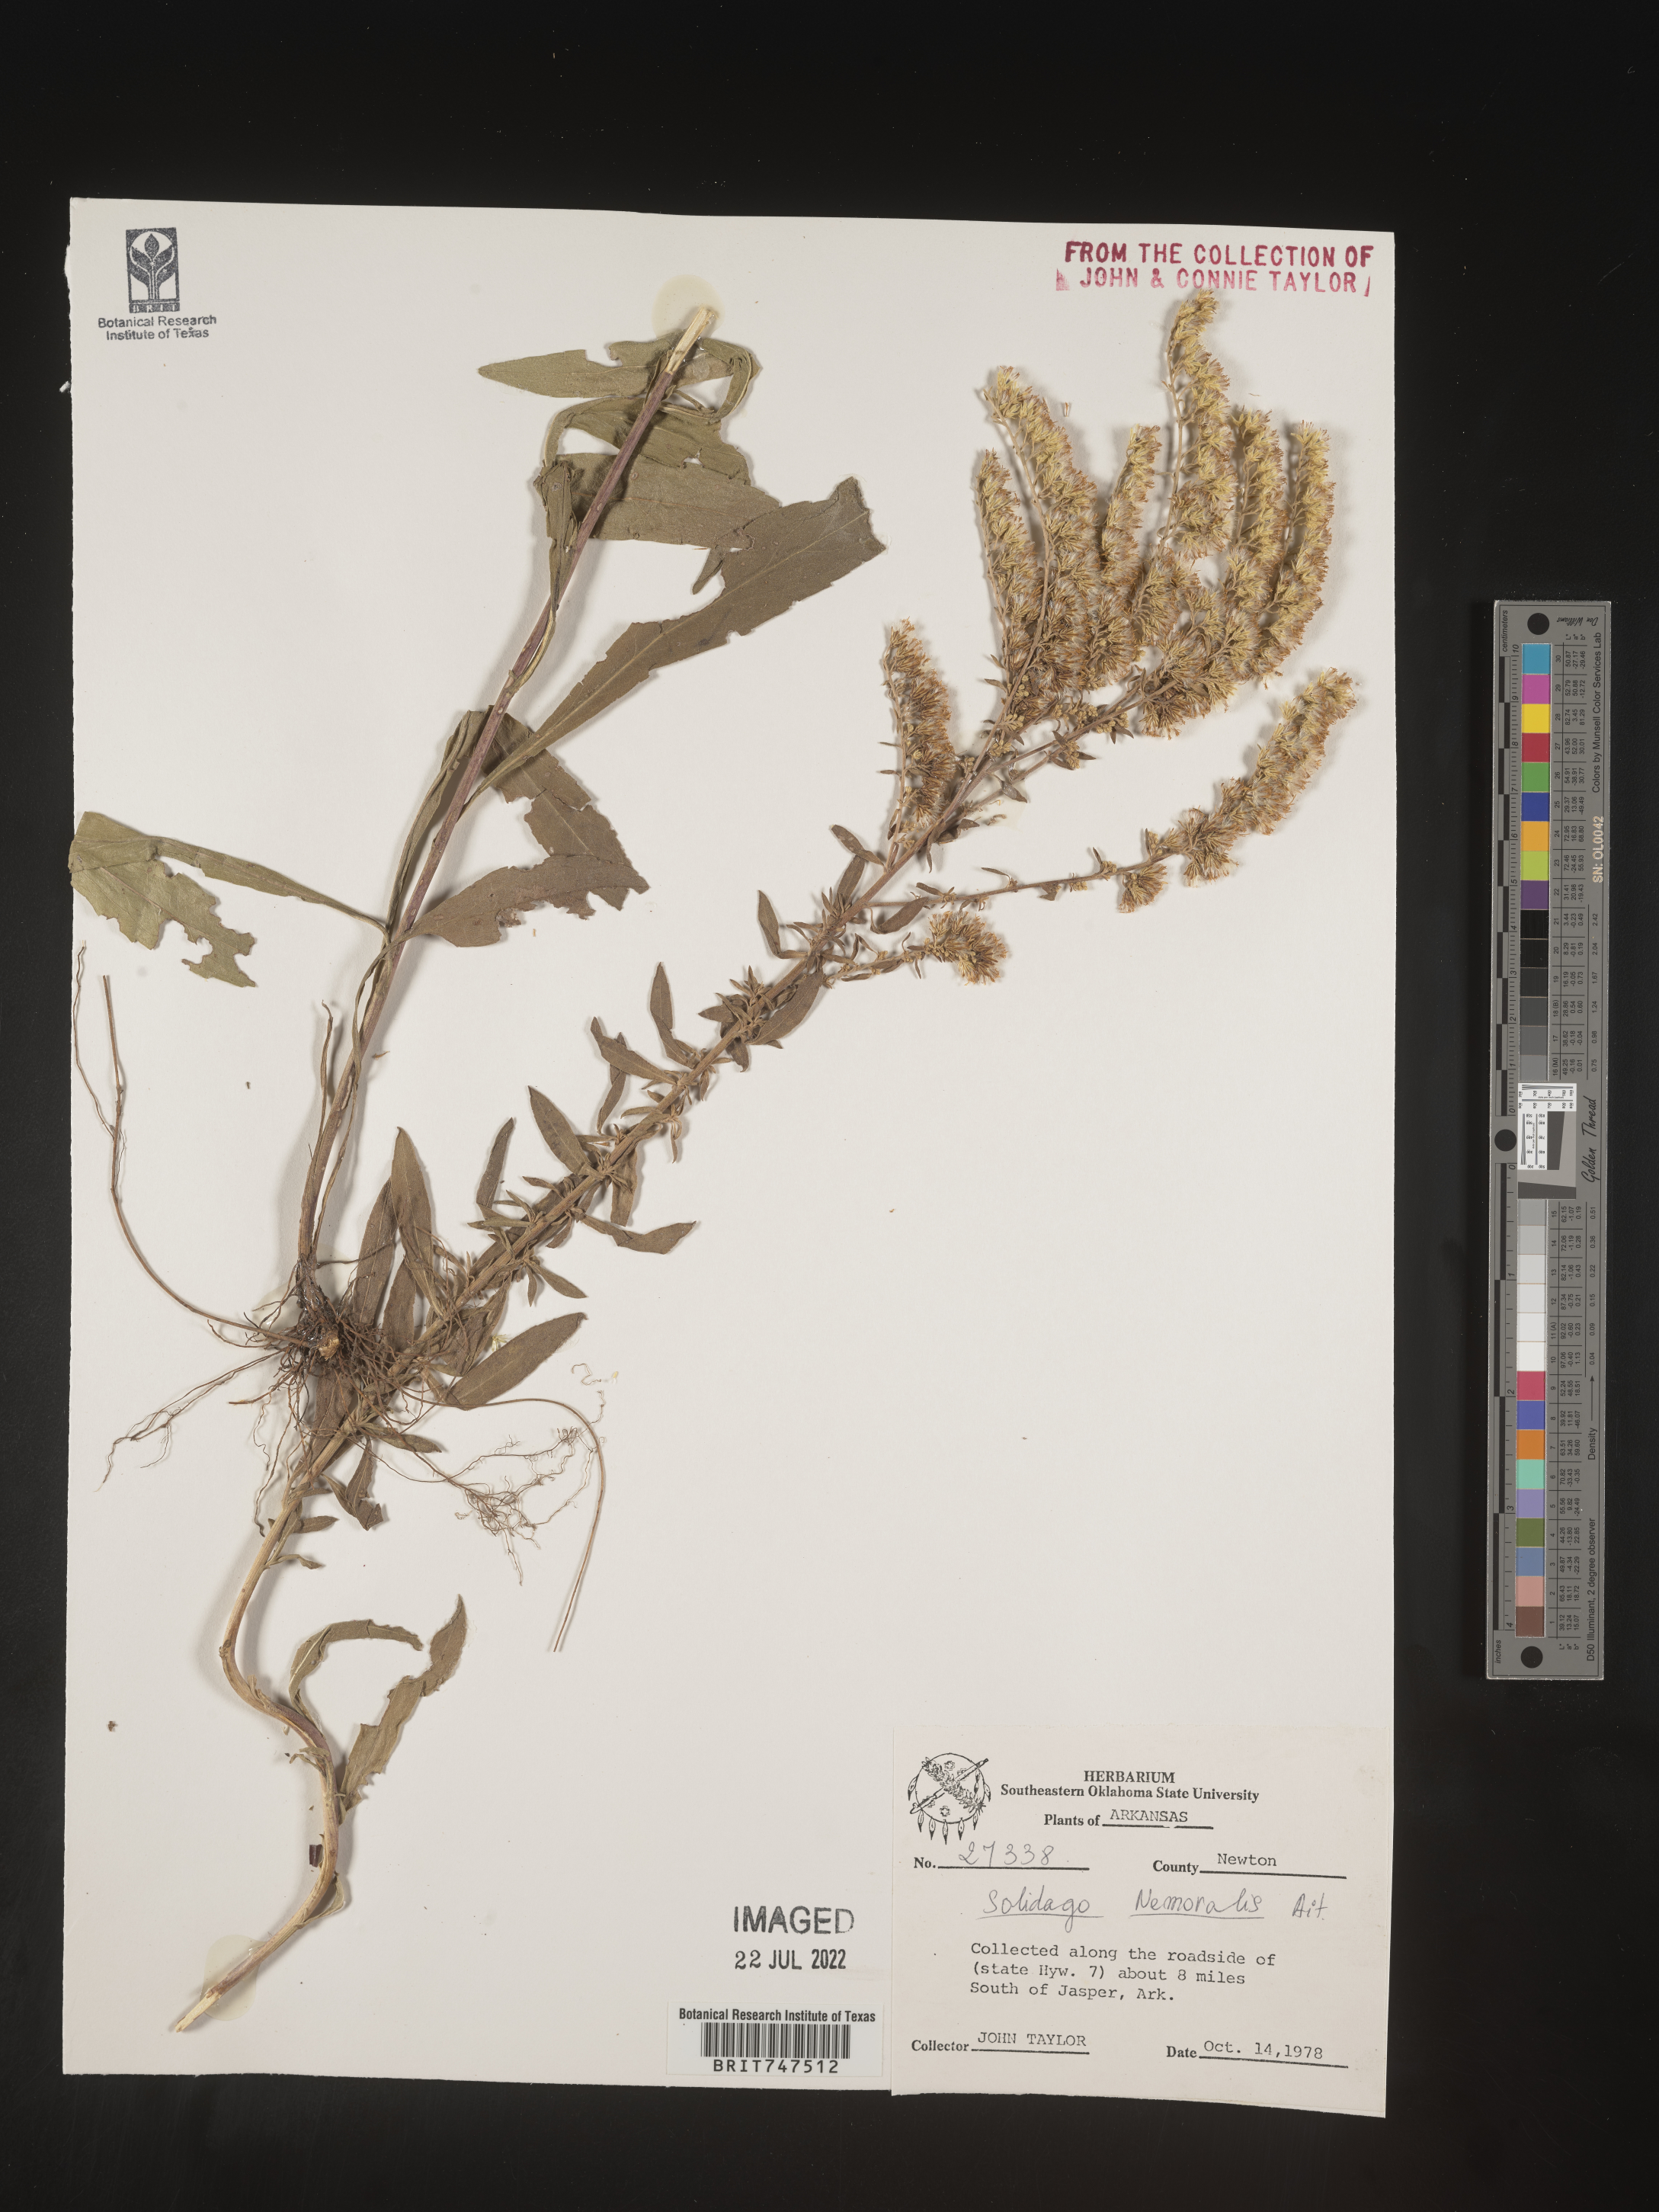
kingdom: Plantae
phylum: Tracheophyta
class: Magnoliopsida
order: Asterales
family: Asteraceae
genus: Solidago
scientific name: Solidago nemoralis
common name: Grey goldenrod
